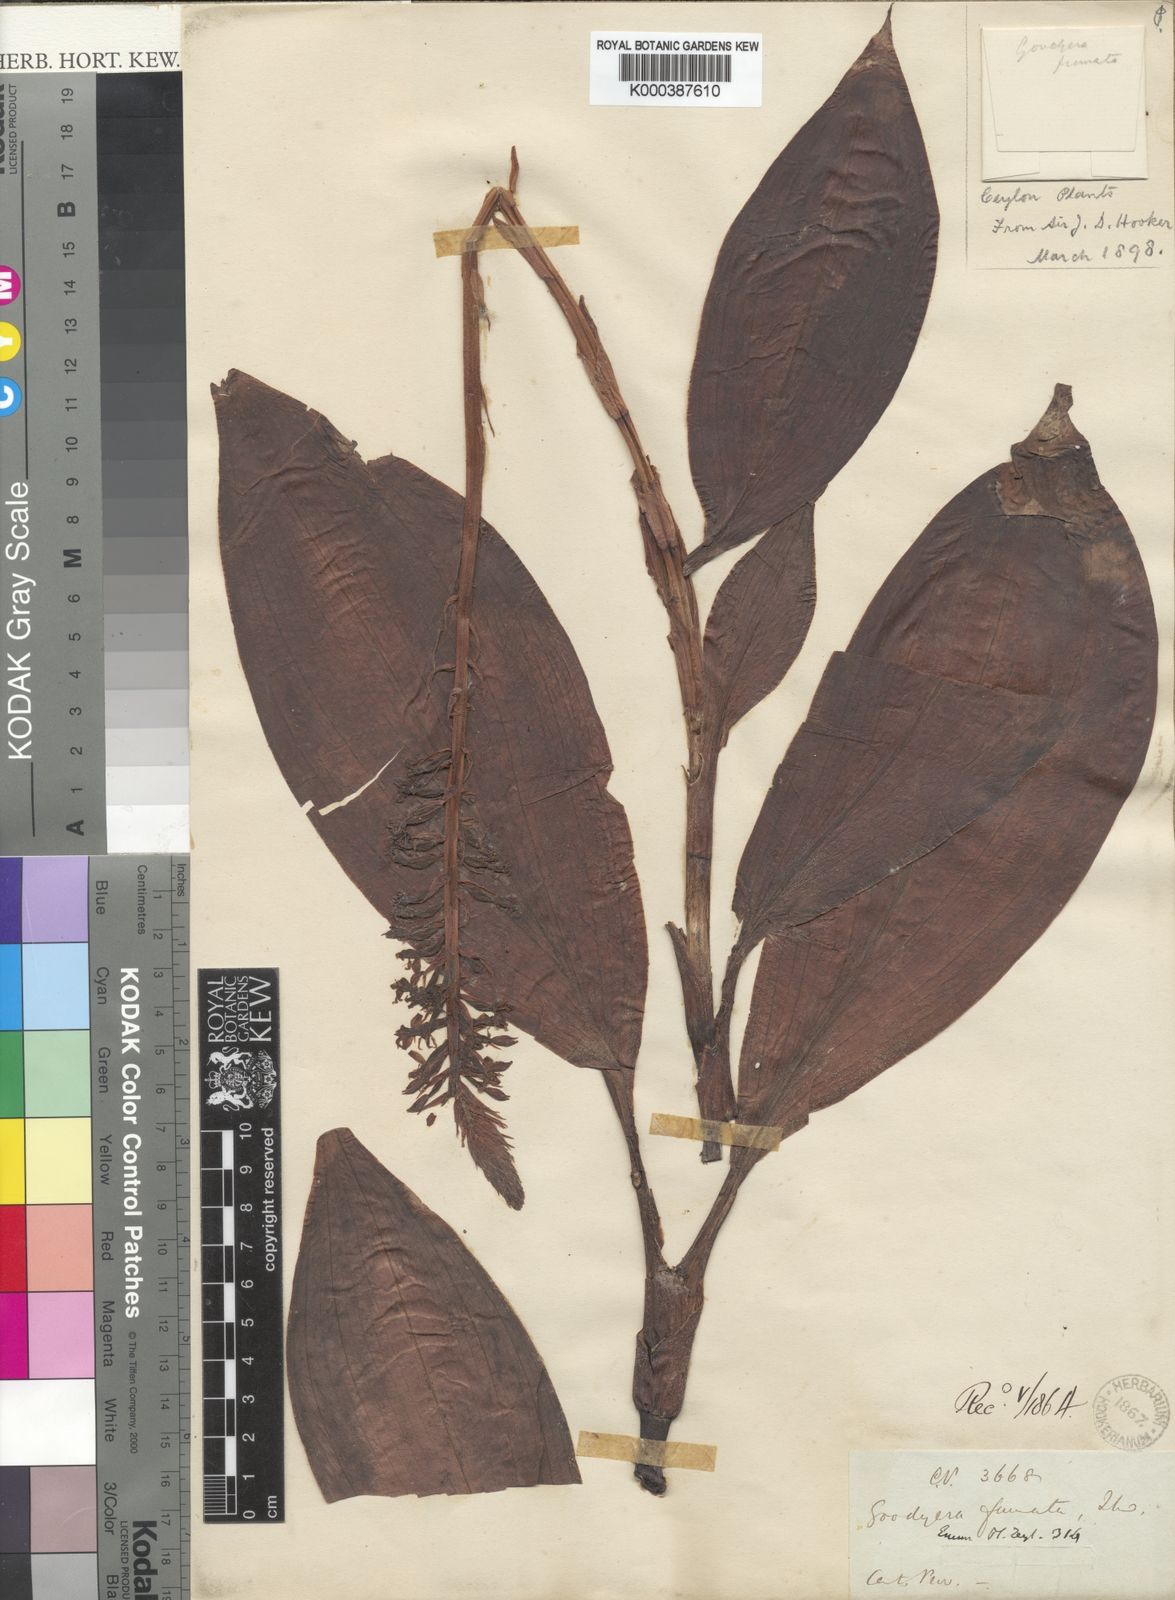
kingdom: Plantae
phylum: Tracheophyta
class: Liliopsida
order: Asparagales
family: Orchidaceae
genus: Goodyera
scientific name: Goodyera fumata
